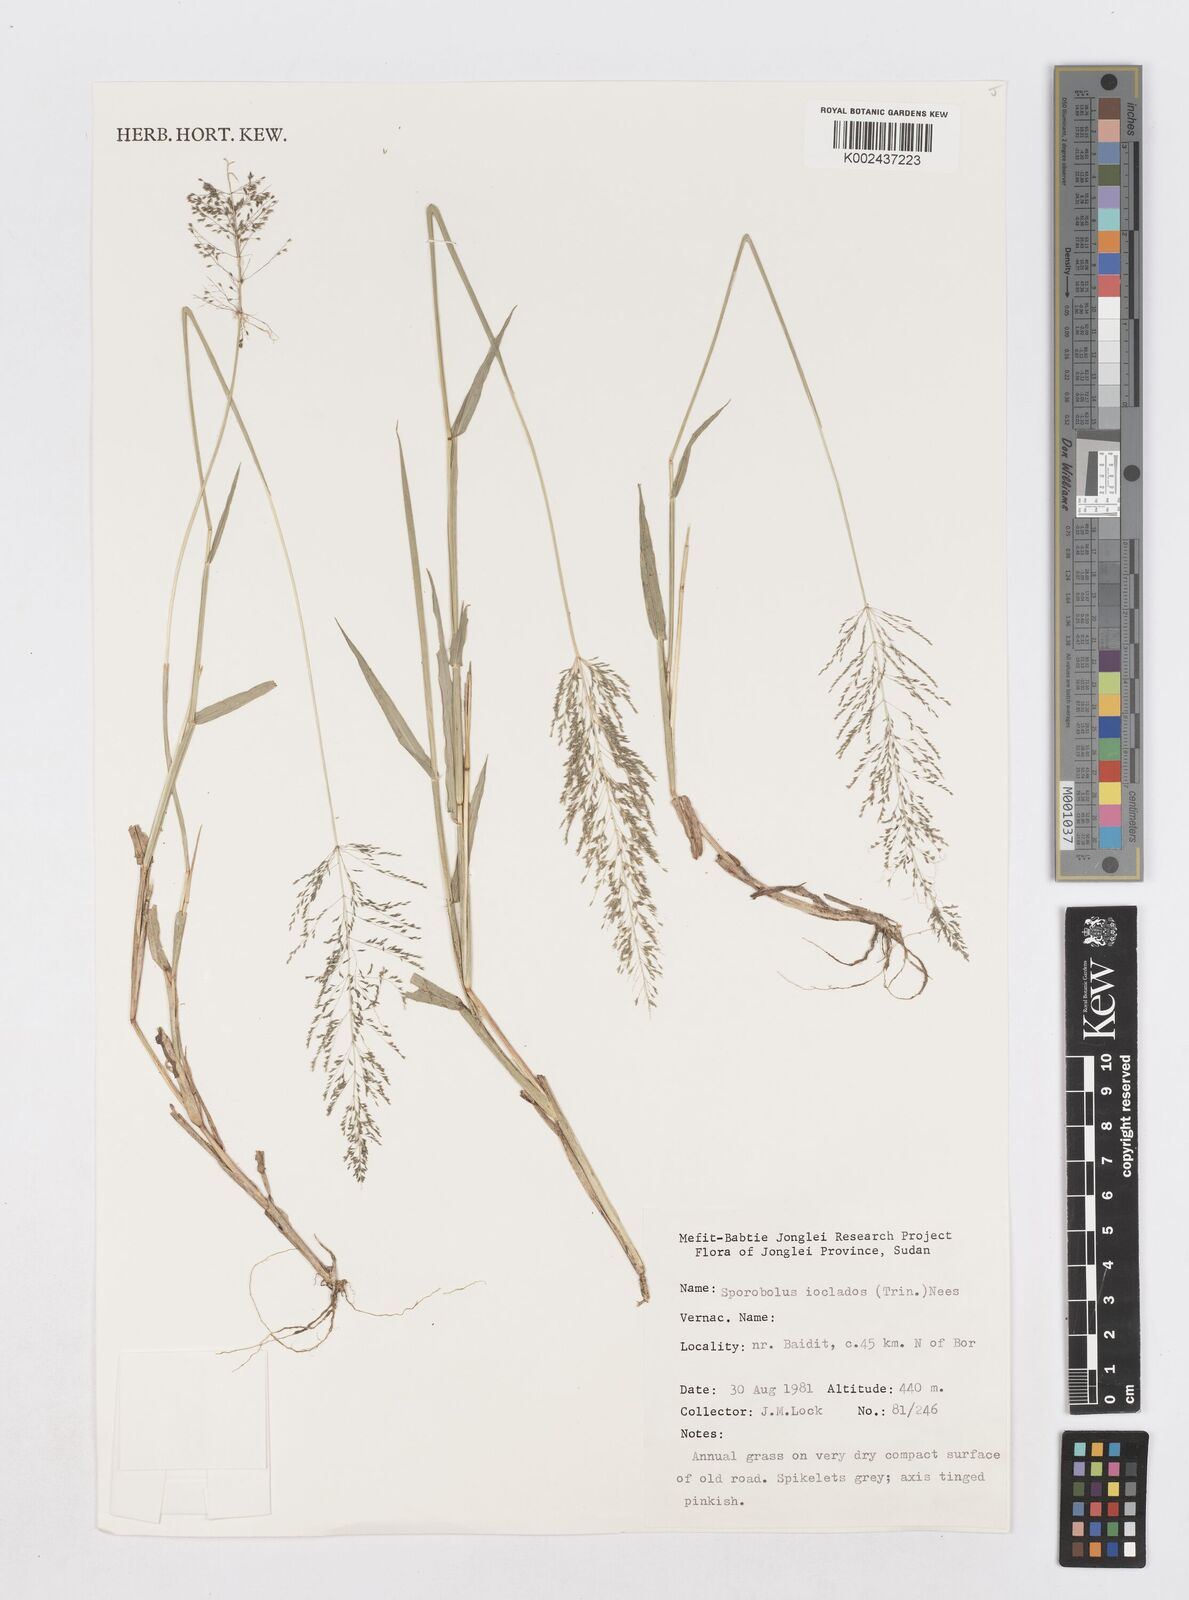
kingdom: Plantae
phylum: Tracheophyta
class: Liliopsida
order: Poales
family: Poaceae
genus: Sporobolus
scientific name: Sporobolus ioclados
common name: Pan dropseed
